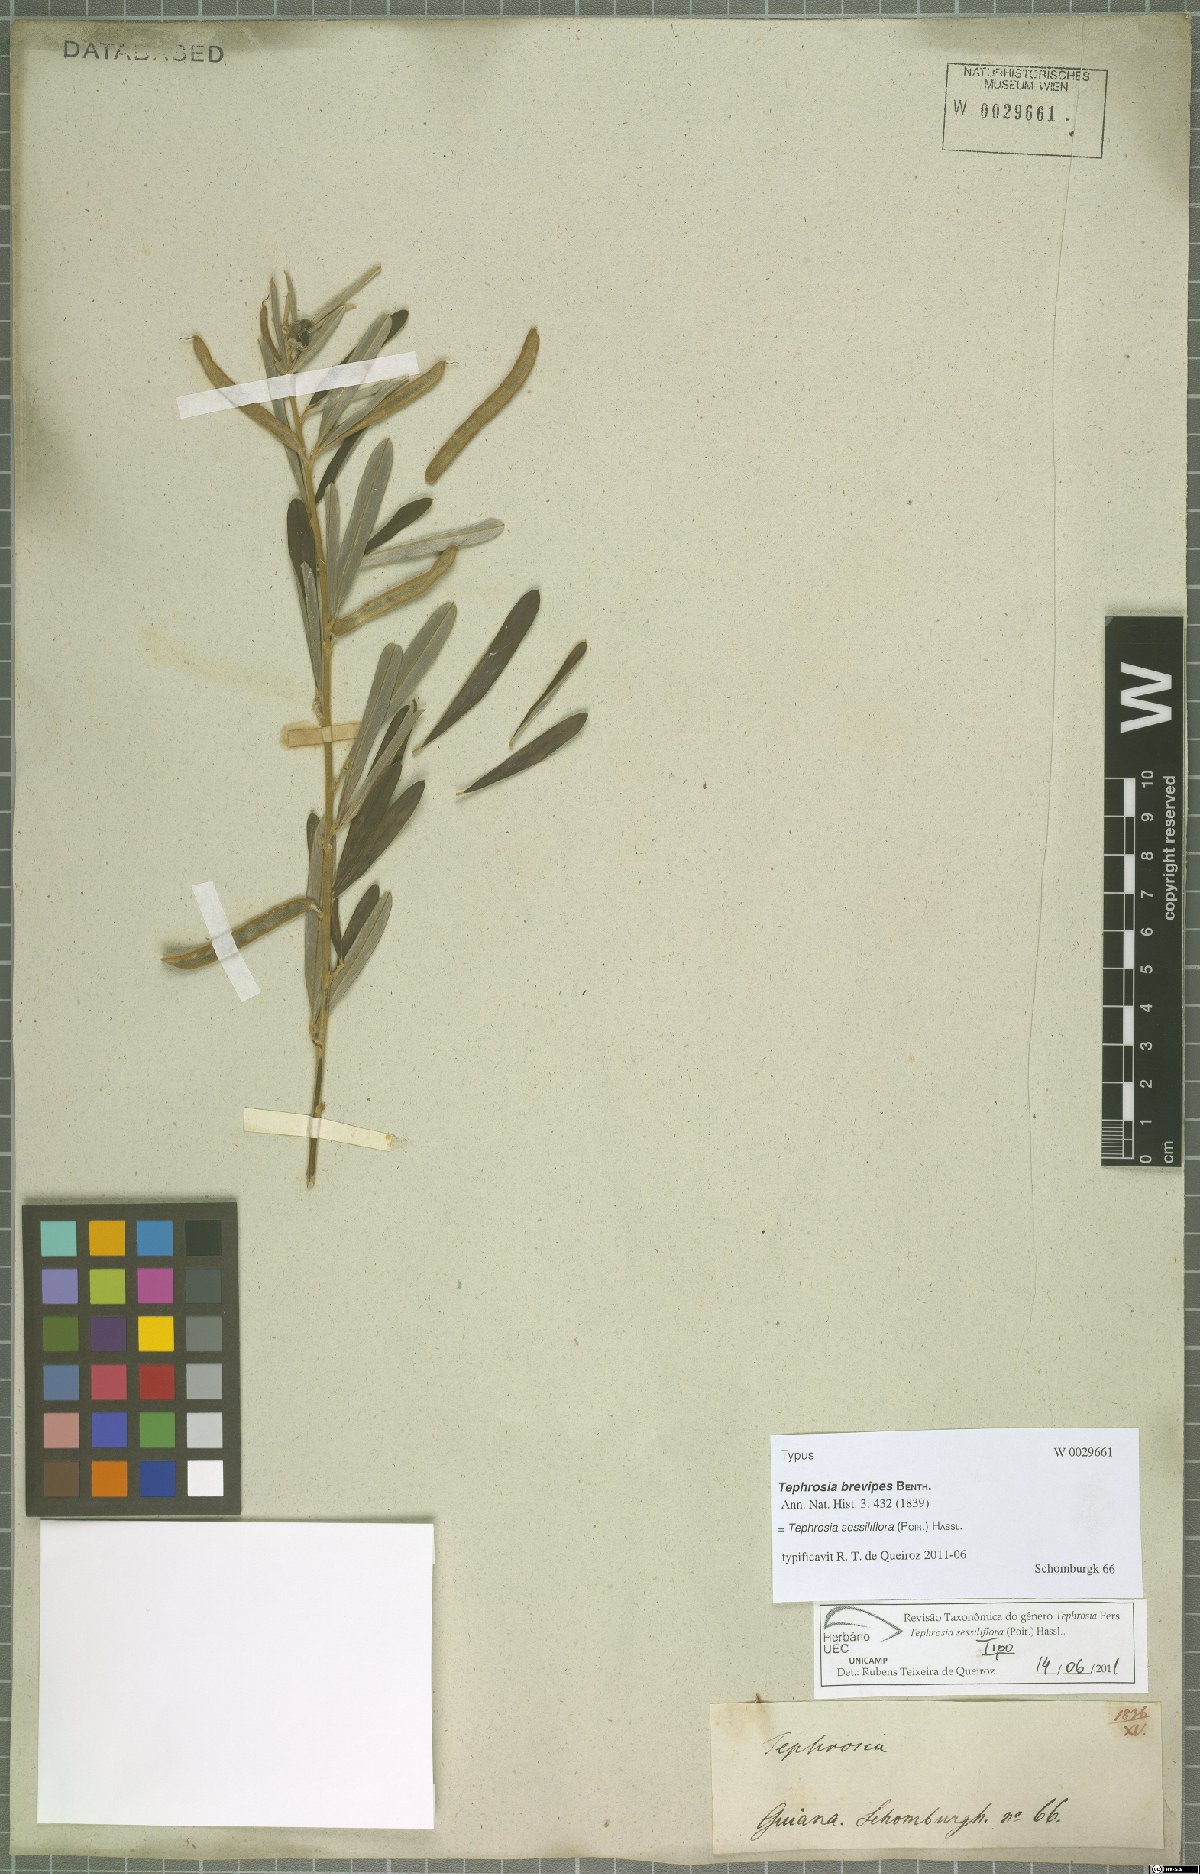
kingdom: Plantae
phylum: Tracheophyta
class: Magnoliopsida
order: Fabales
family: Fabaceae
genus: Tephrosia
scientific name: Tephrosia sessiliflora
